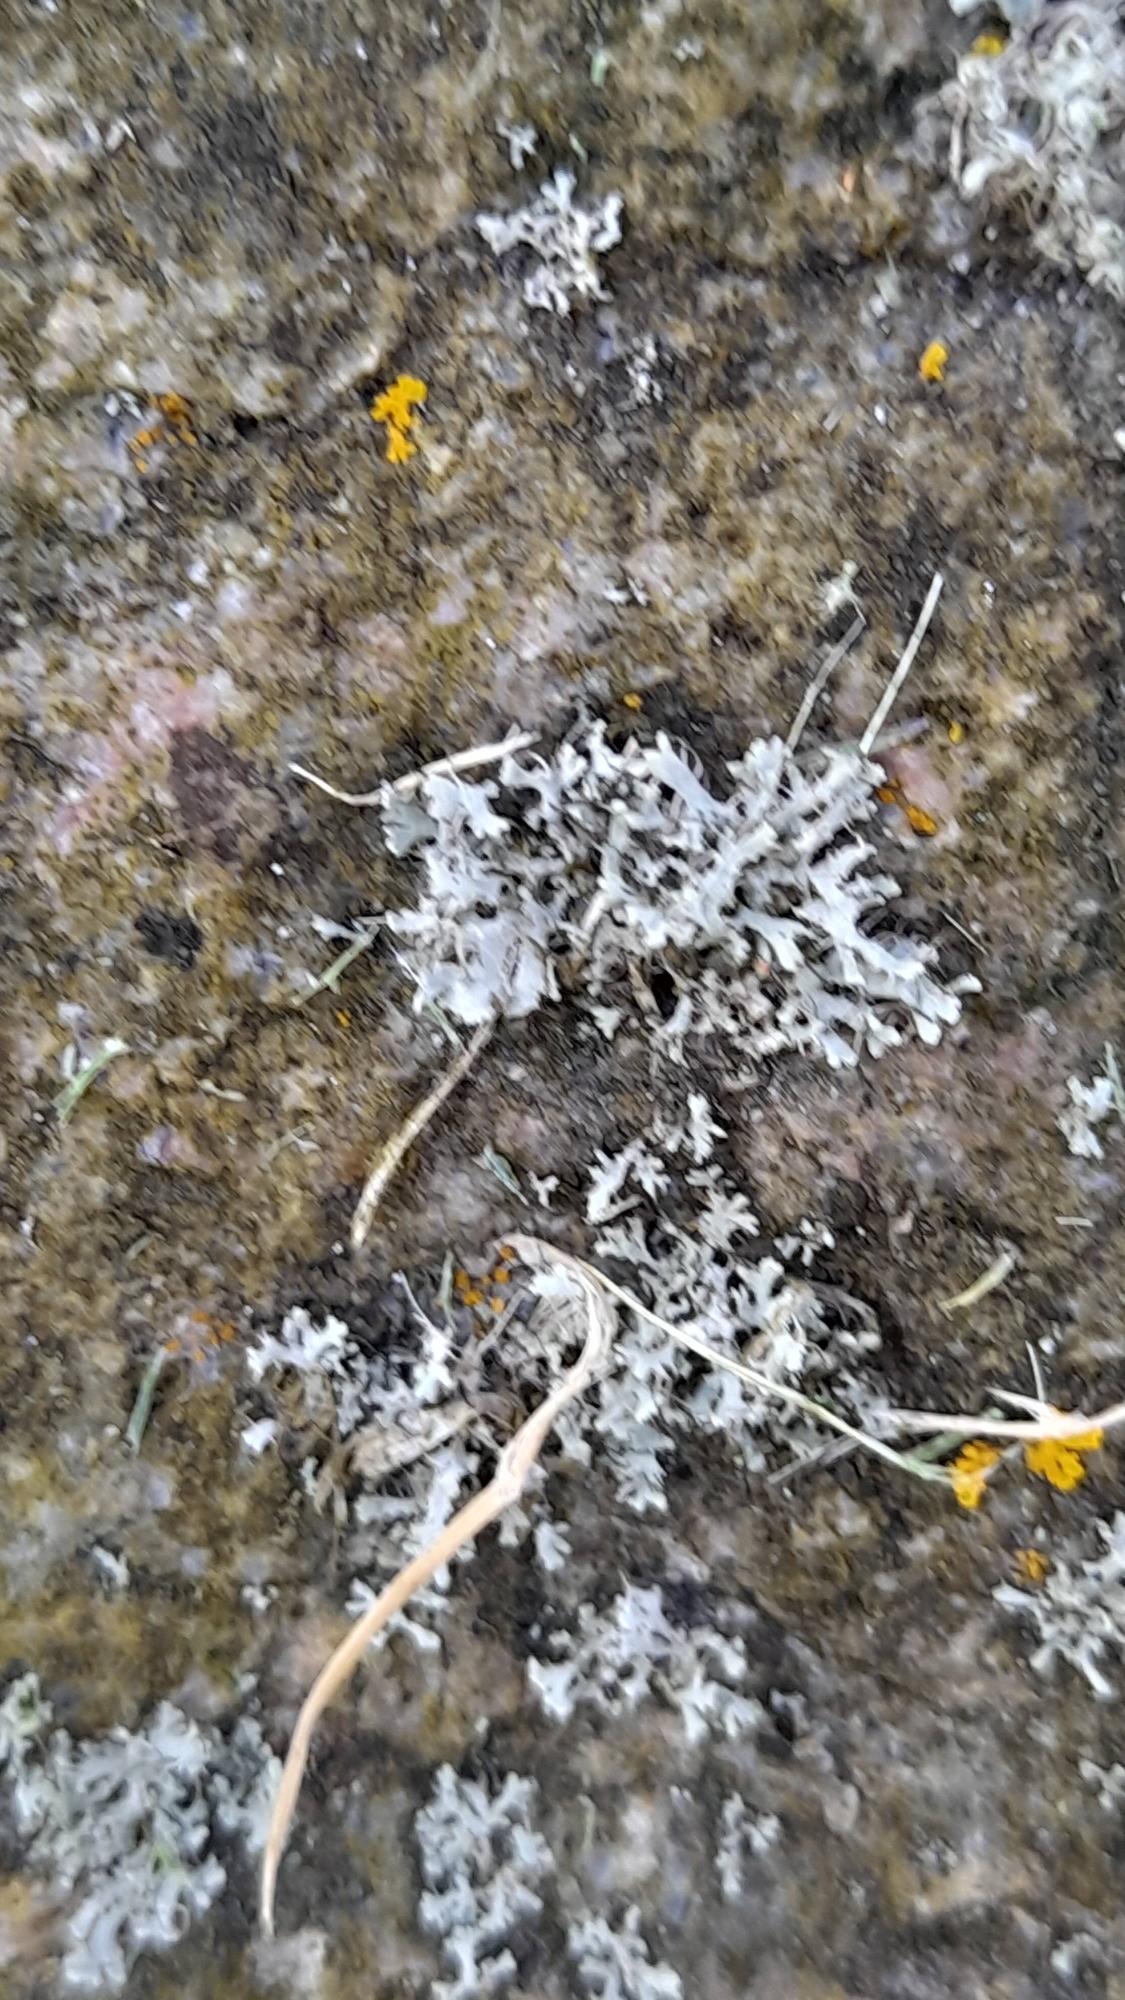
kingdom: Fungi
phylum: Ascomycota
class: Lecanoromycetes
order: Caliciales
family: Physciaceae
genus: Physcia
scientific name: Physcia tenella
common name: Spæd rosetlav
